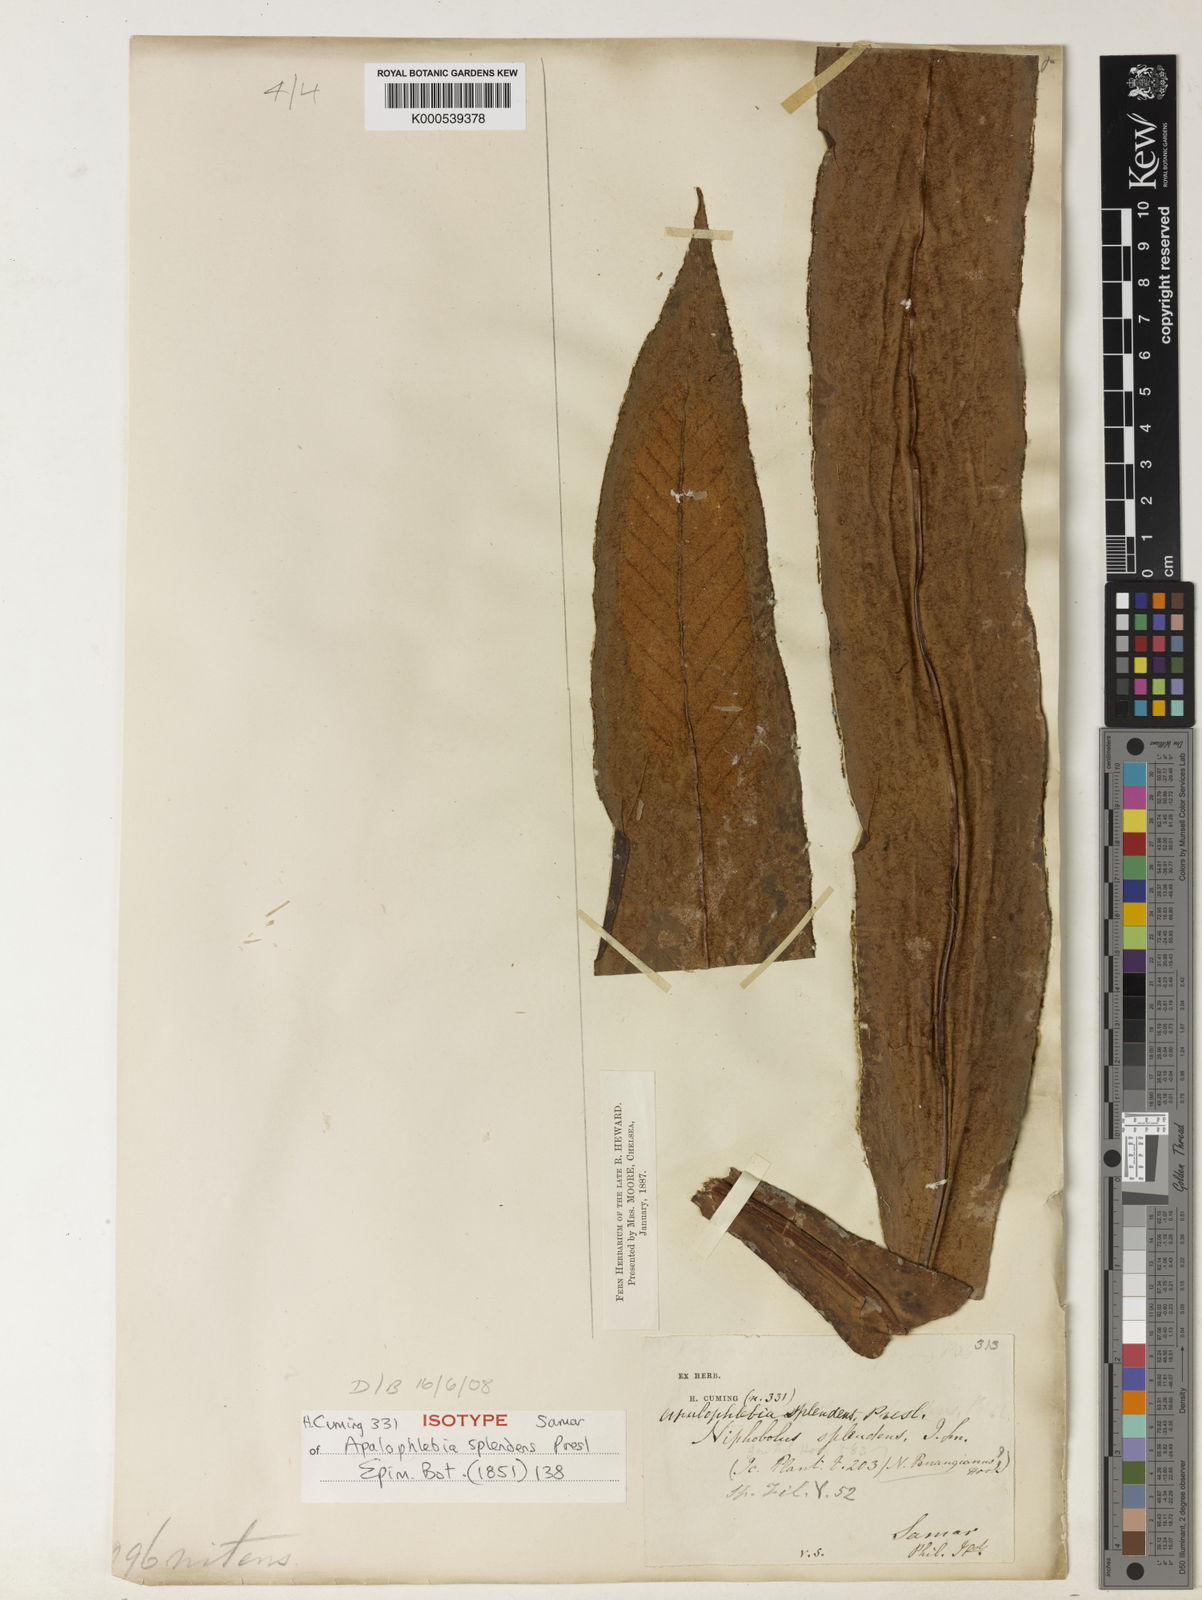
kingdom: Plantae
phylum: Tracheophyta
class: Polypodiopsida
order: Polypodiales
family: Polypodiaceae
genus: Pyrrosia
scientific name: Pyrrosia splendens
